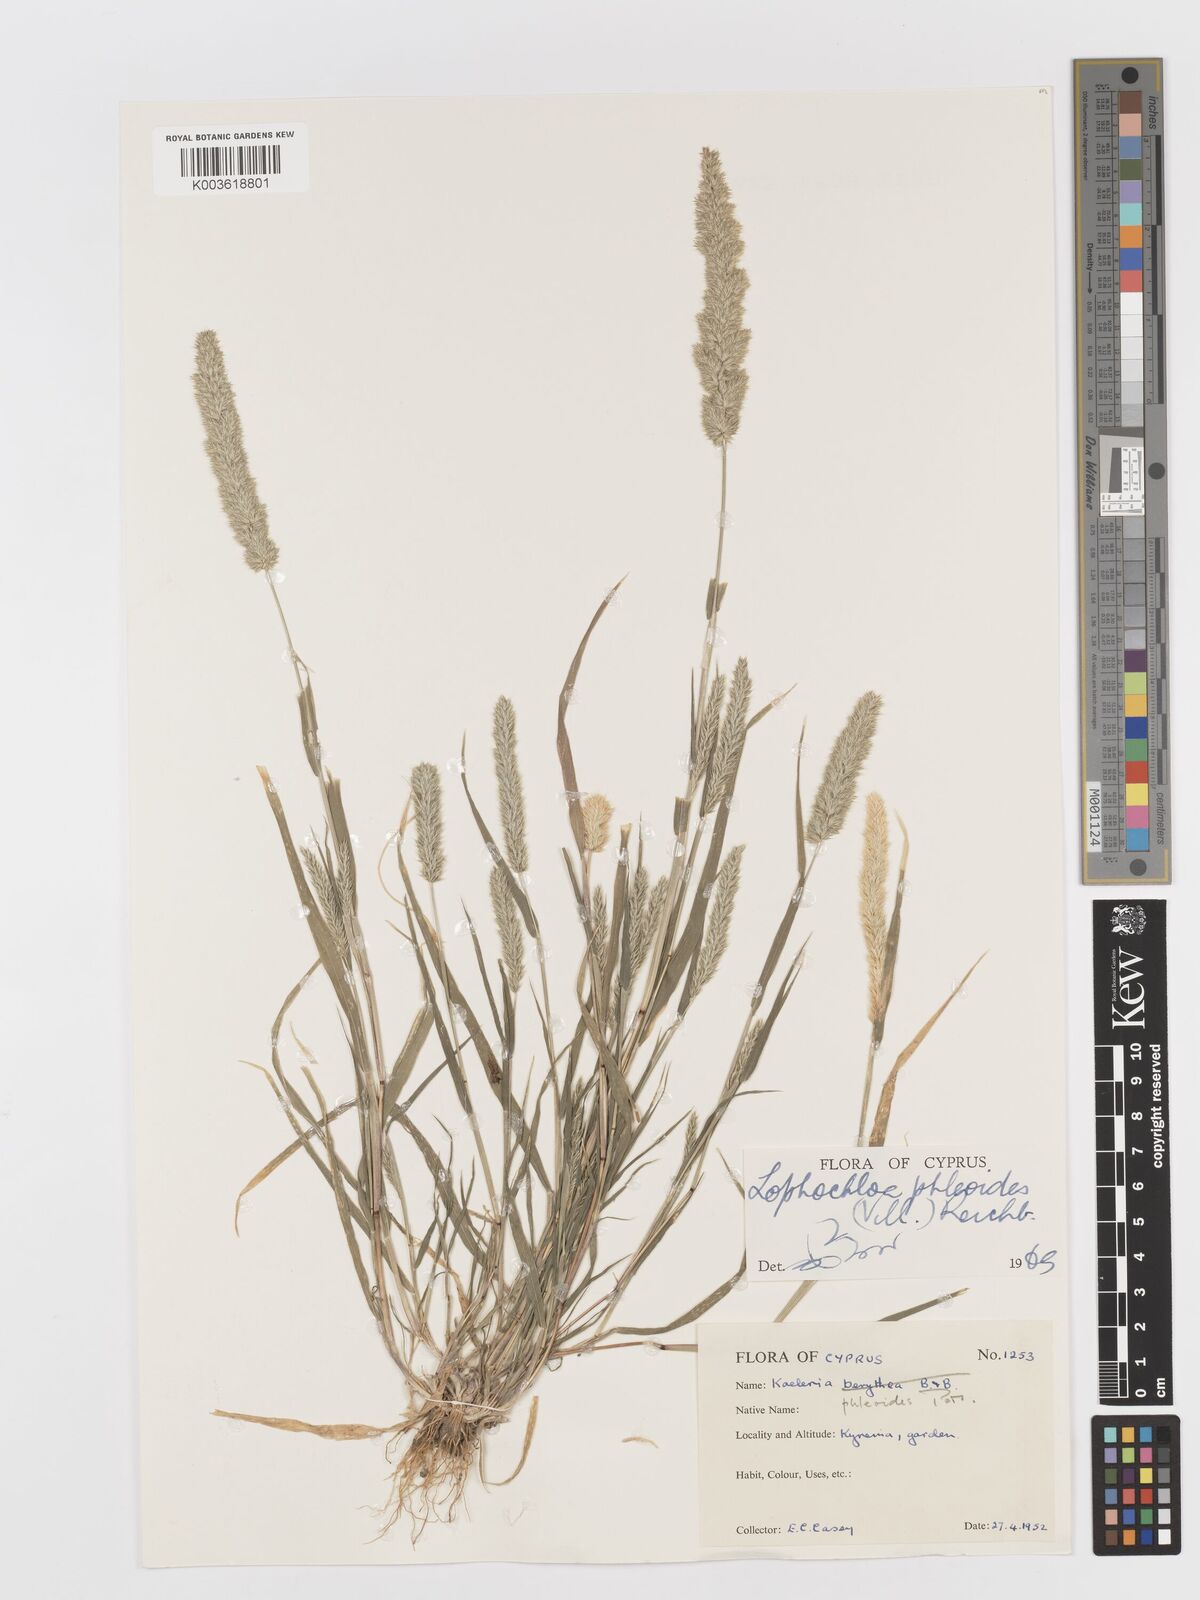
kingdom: Plantae
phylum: Tracheophyta
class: Liliopsida
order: Poales
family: Poaceae
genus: Rostraria
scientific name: Rostraria cristata
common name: Mediterranean hair-grass
